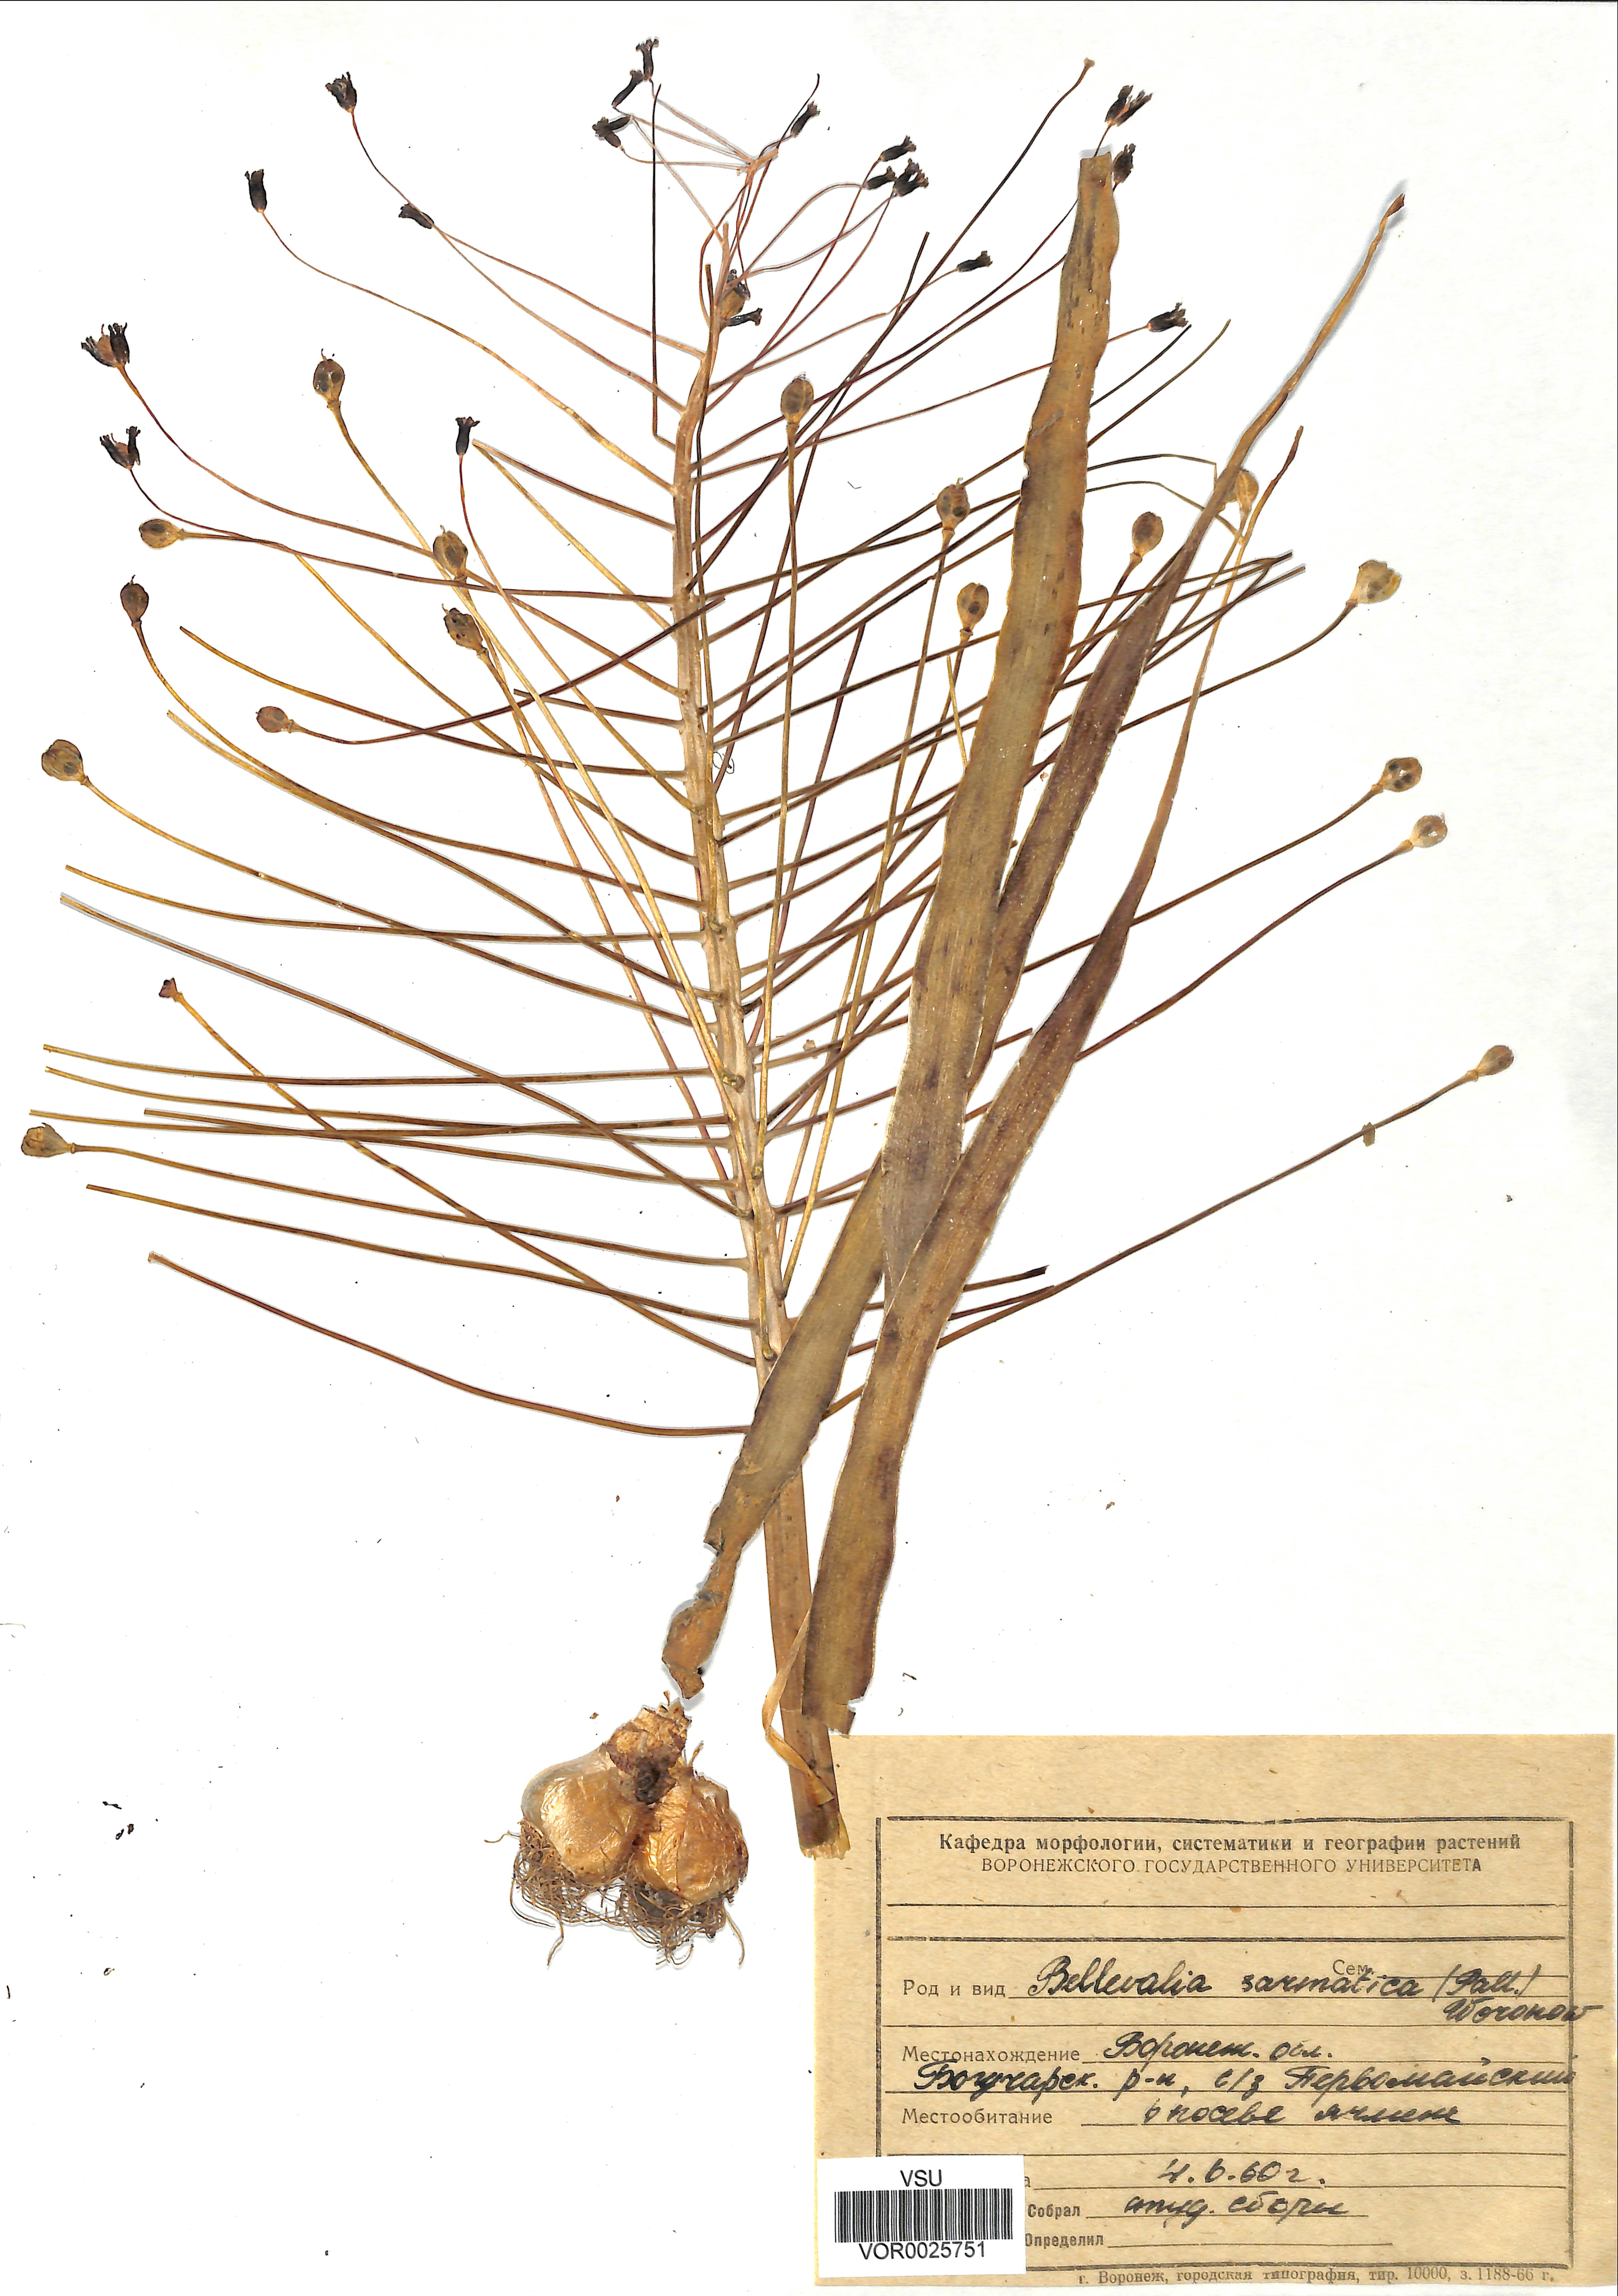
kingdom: Plantae
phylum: Tracheophyta
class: Liliopsida
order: Asparagales
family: Asparagaceae
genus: Bellevalia
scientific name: Bellevalia speciosa
